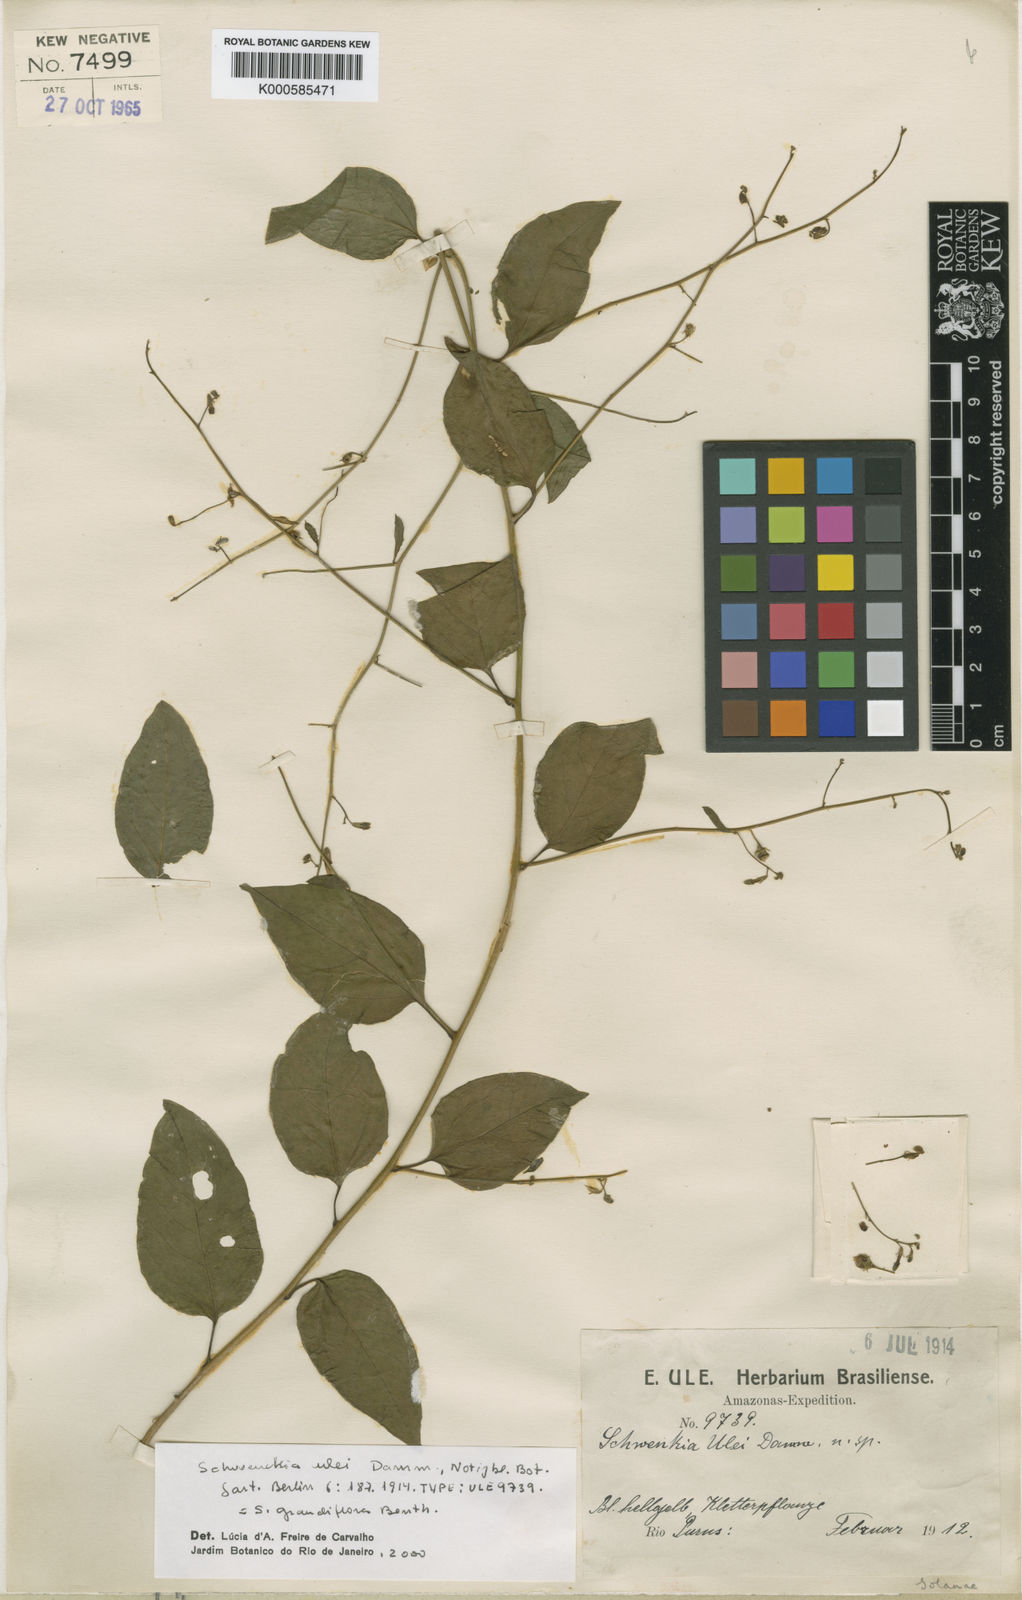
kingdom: Plantae
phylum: Tracheophyta
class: Magnoliopsida
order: Solanales
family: Solanaceae
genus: Schwenckia
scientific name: Schwenckia grandiflora
